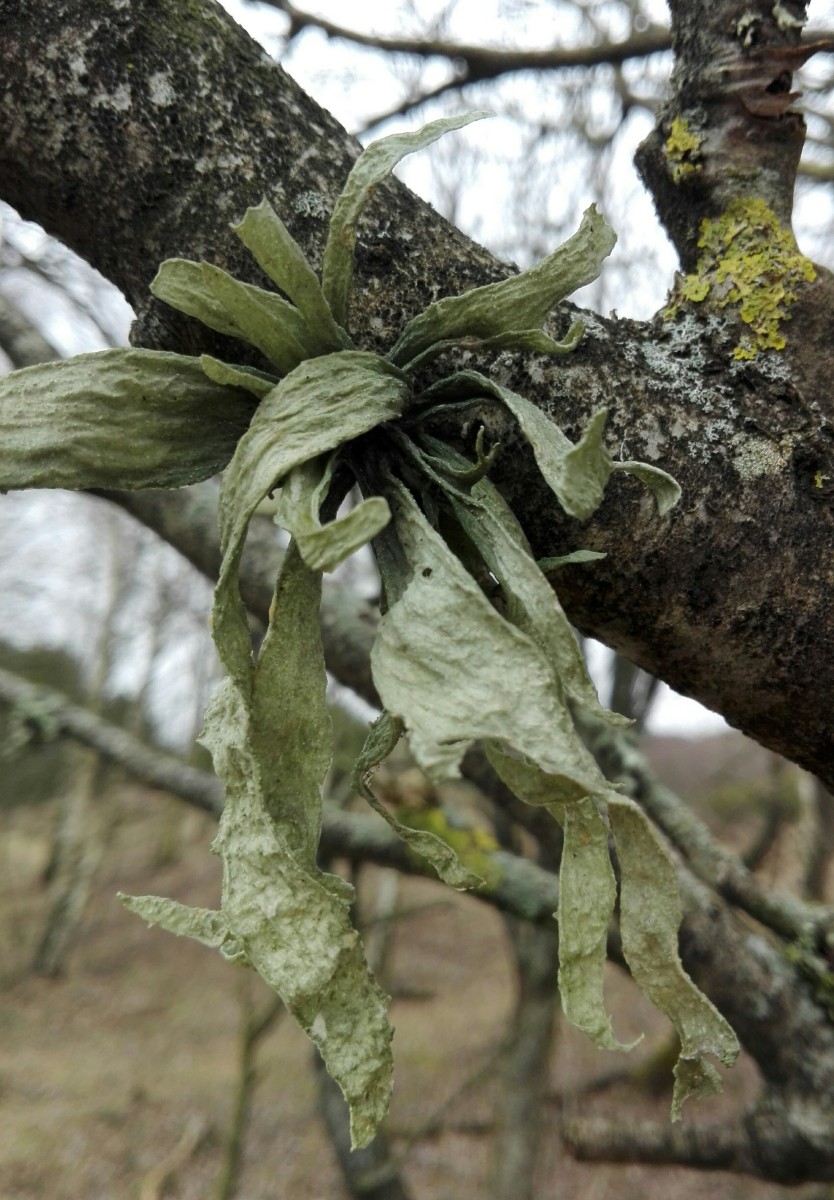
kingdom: Fungi
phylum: Ascomycota
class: Lecanoromycetes
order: Lecanorales
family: Ramalinaceae
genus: Ramalina
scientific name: Ramalina fraxinea
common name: stor grenlav
